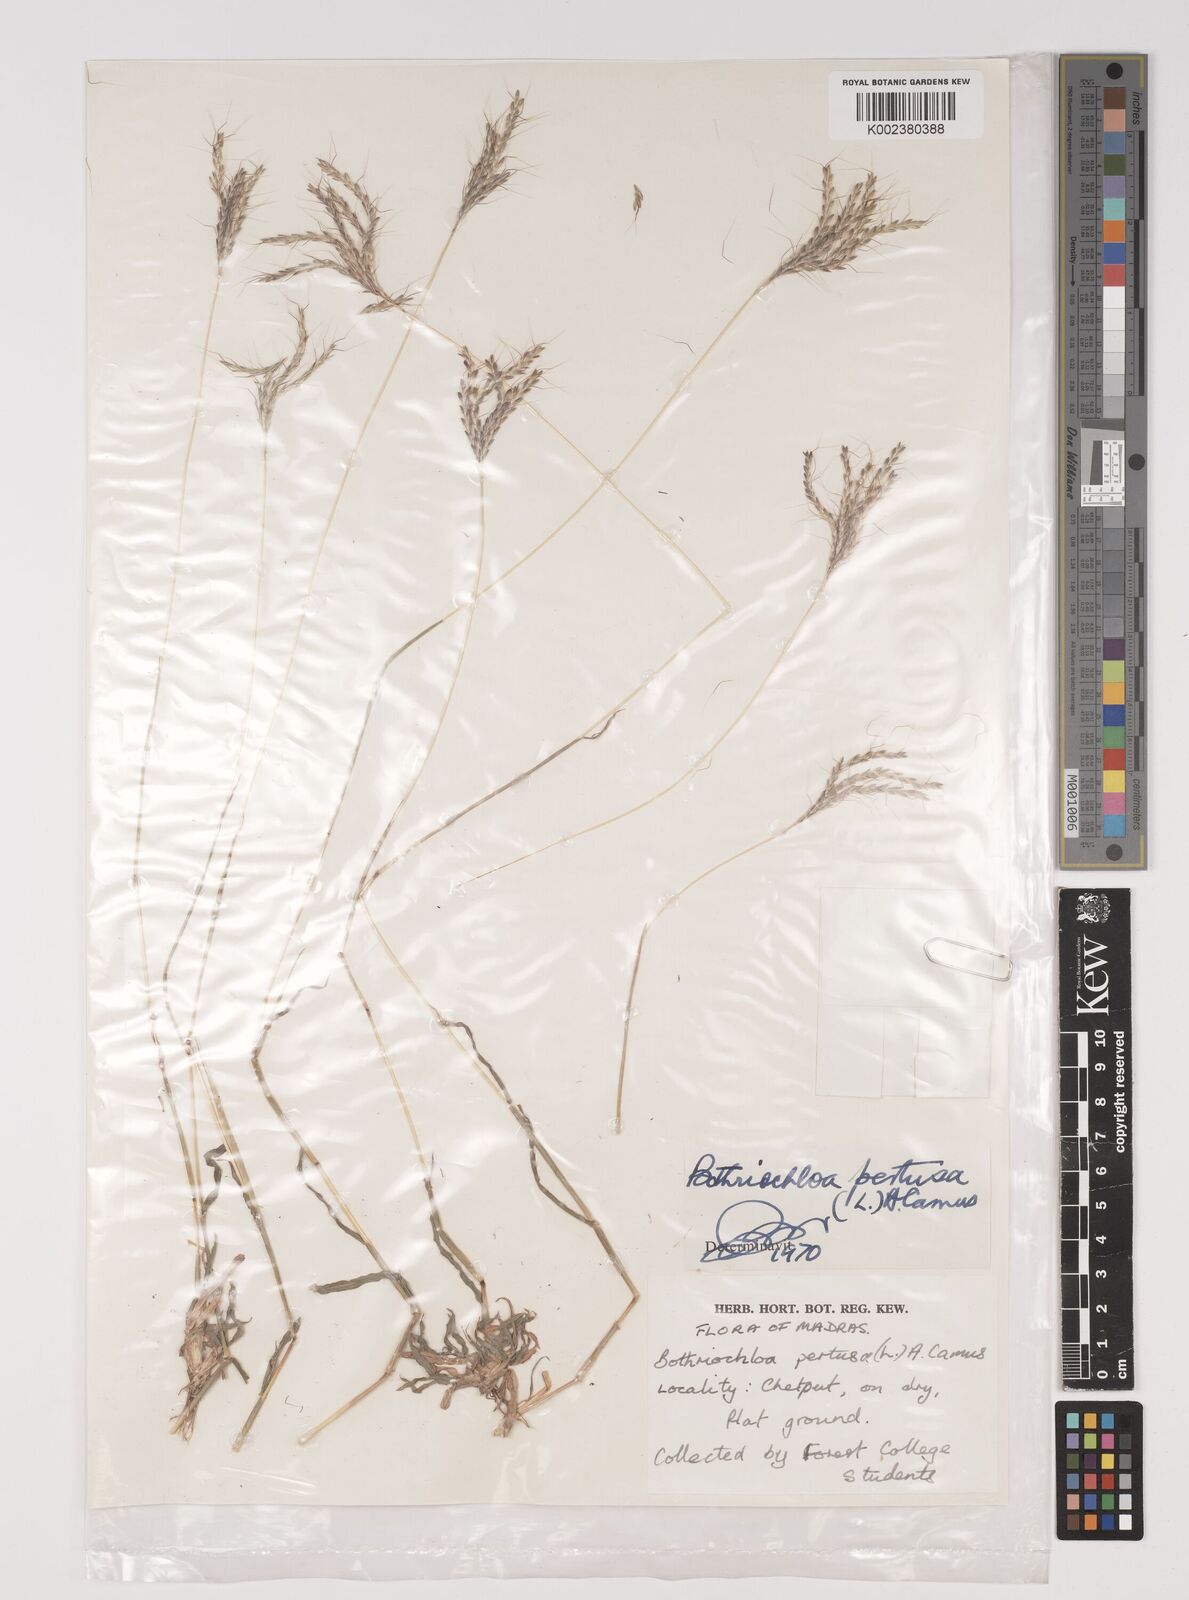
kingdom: Plantae
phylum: Tracheophyta
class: Liliopsida
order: Poales
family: Poaceae
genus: Bothriochloa
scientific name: Bothriochloa pertusa
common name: Pitted beardgrass
